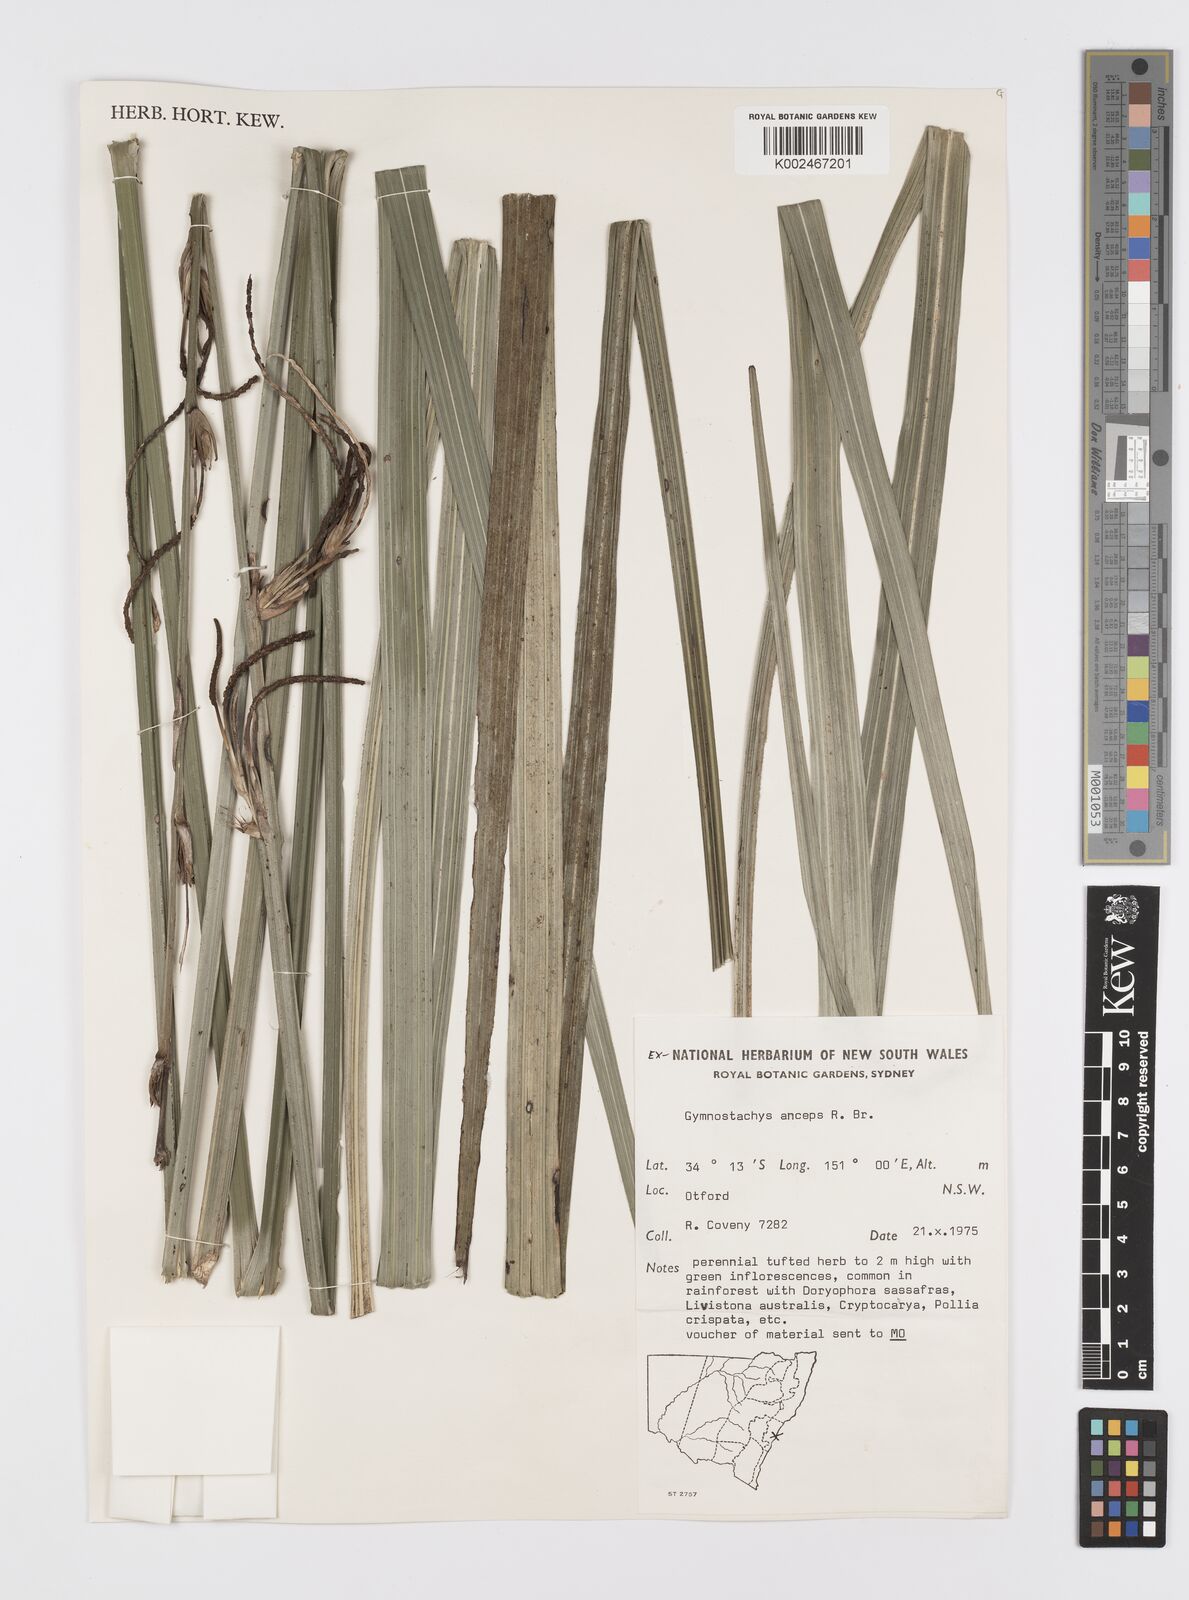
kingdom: Plantae
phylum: Tracheophyta
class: Liliopsida
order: Alismatales
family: Araceae
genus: Gymnostachys
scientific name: Gymnostachys anceps
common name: Settler's-flax
